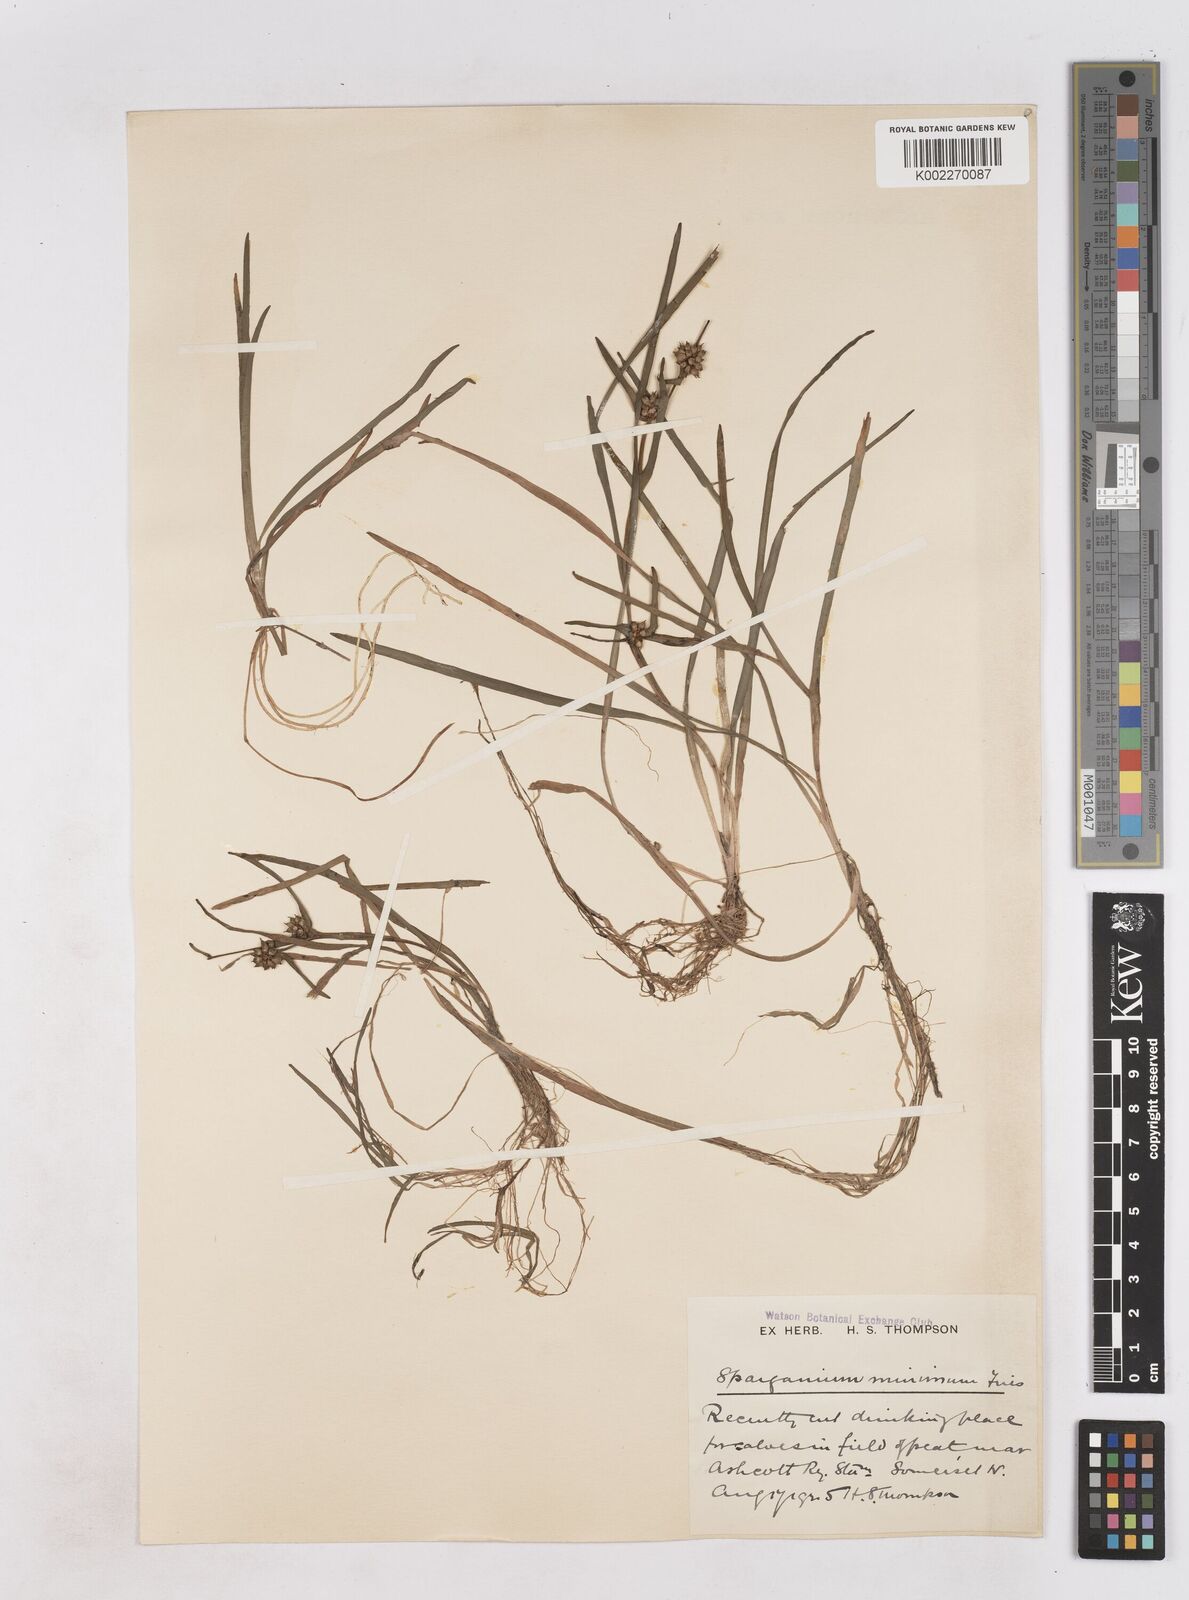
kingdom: Plantae
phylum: Tracheophyta
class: Liliopsida
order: Poales
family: Typhaceae
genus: Sparganium
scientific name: Sparganium natans
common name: Least bur-reed
